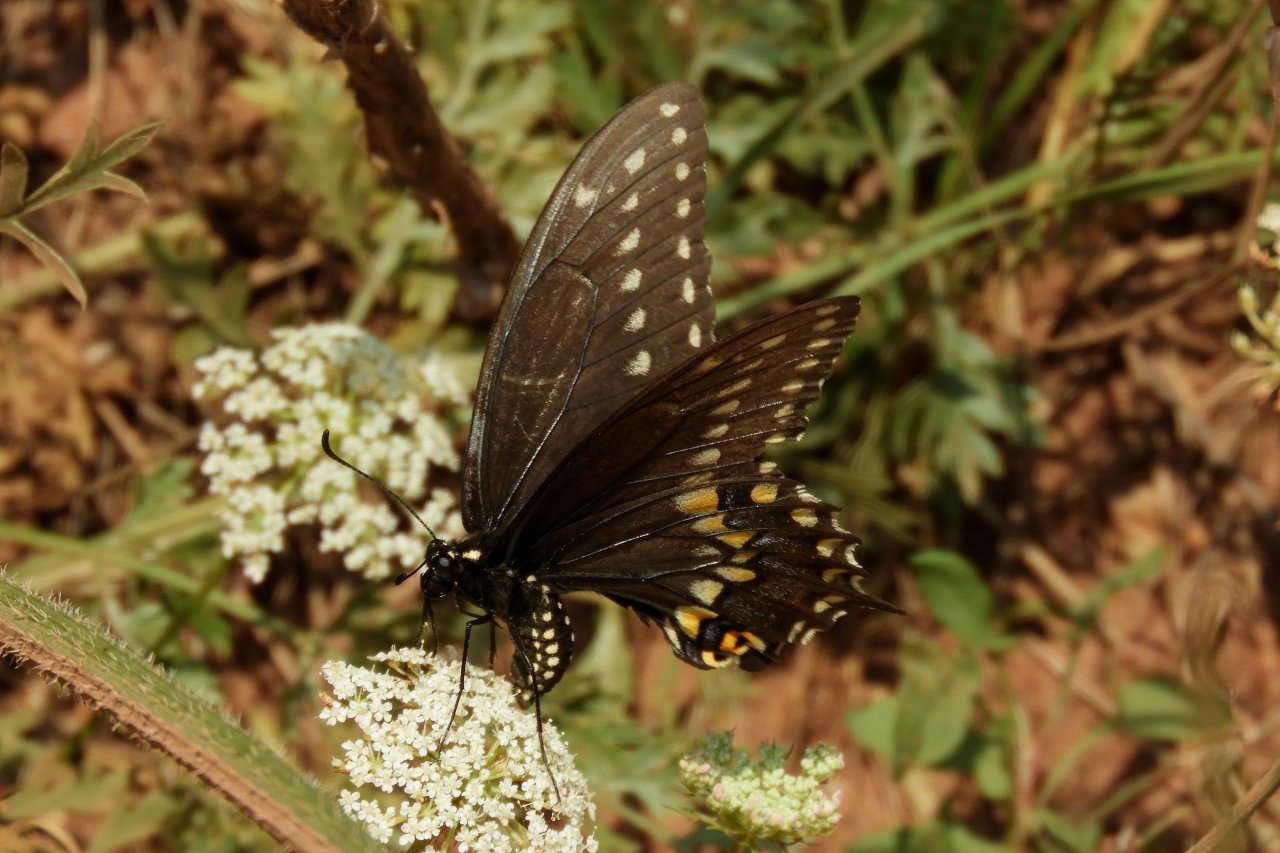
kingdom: Animalia
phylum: Arthropoda
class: Insecta
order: Lepidoptera
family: Papilionidae
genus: Papilio
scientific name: Papilio polyxenes
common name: Black Swallowtail
